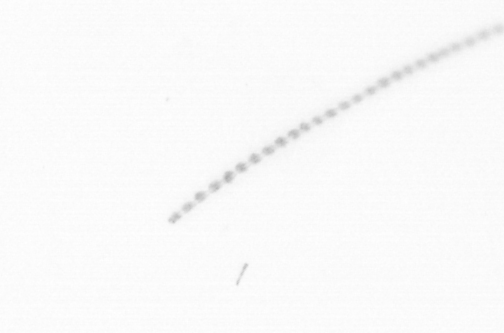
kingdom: Chromista
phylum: Ochrophyta
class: Bacillariophyceae
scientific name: Bacillariophyceae
